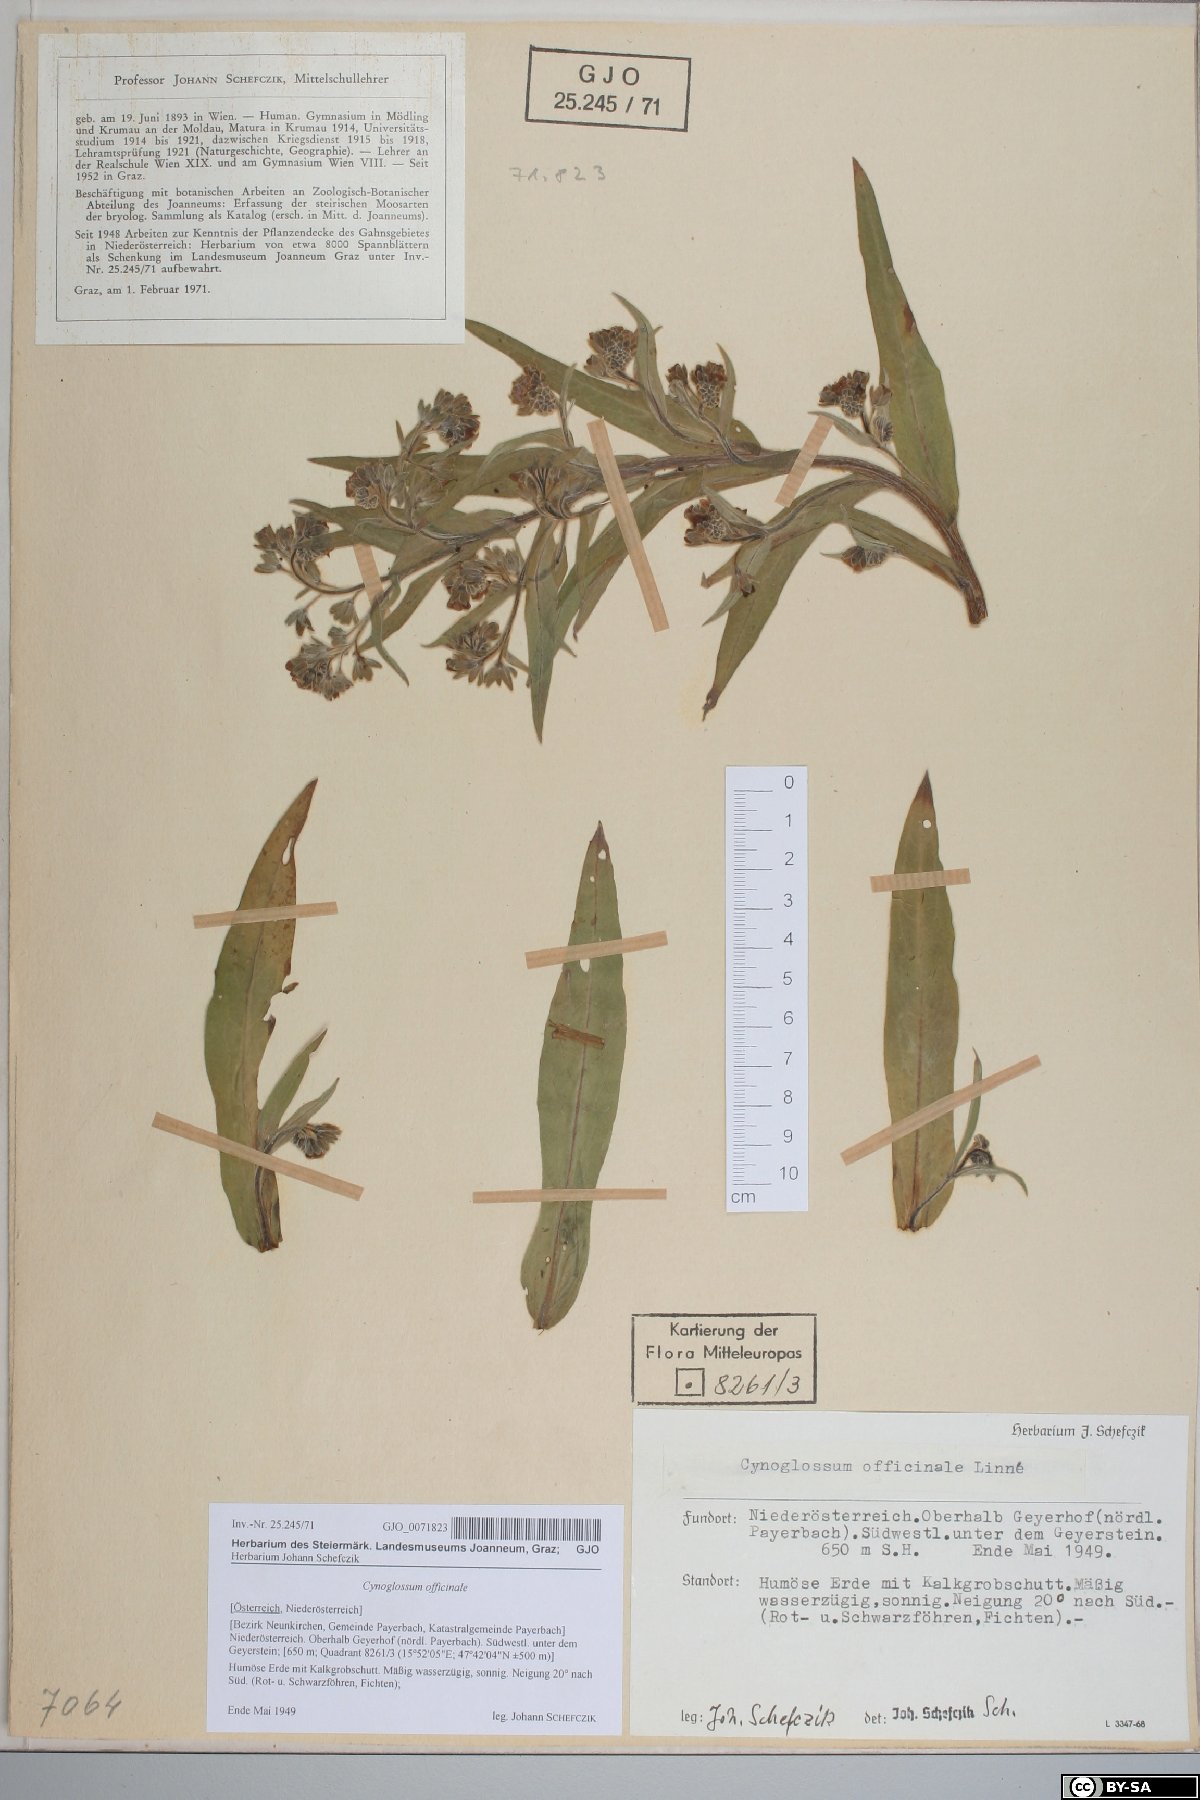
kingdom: Plantae
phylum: Tracheophyta
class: Magnoliopsida
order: Boraginales
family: Boraginaceae
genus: Cynoglossum
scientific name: Cynoglossum officinale
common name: Hound's-tongue
